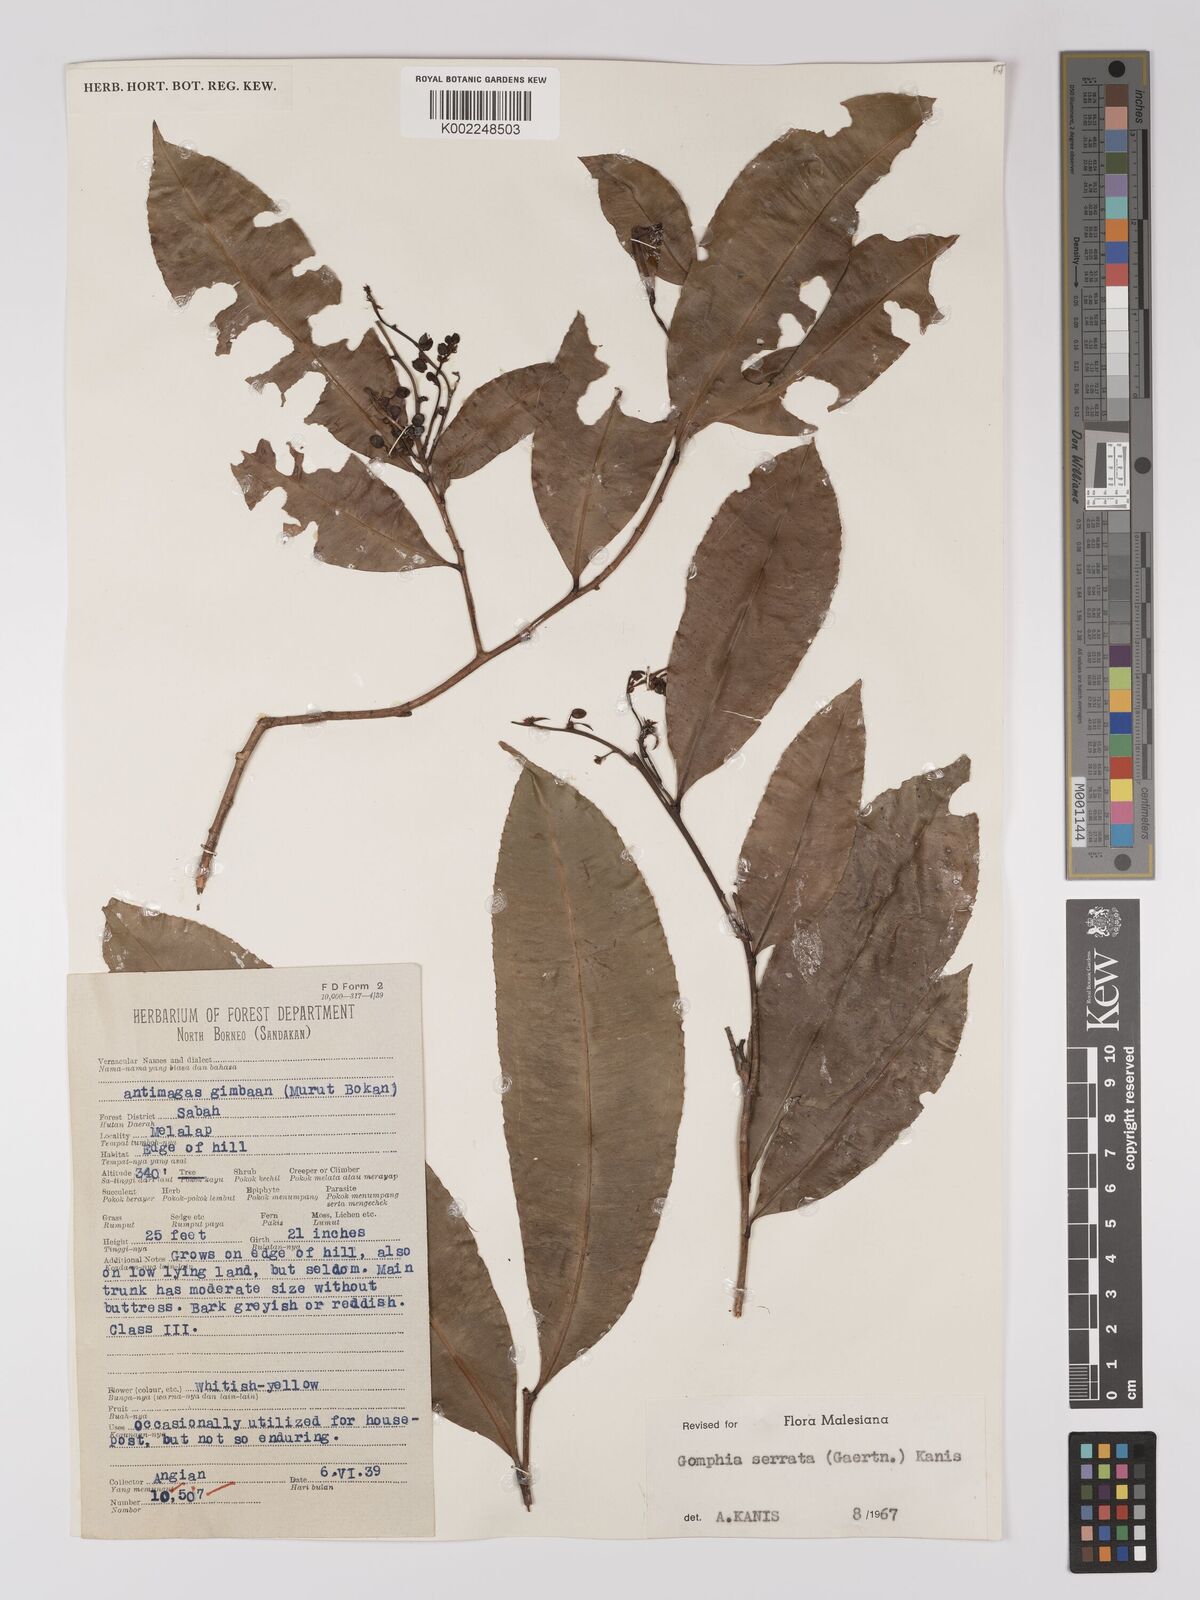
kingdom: Plantae
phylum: Tracheophyta
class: Magnoliopsida
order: Malpighiales
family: Ochnaceae
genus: Gomphia
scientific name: Gomphia serrata
